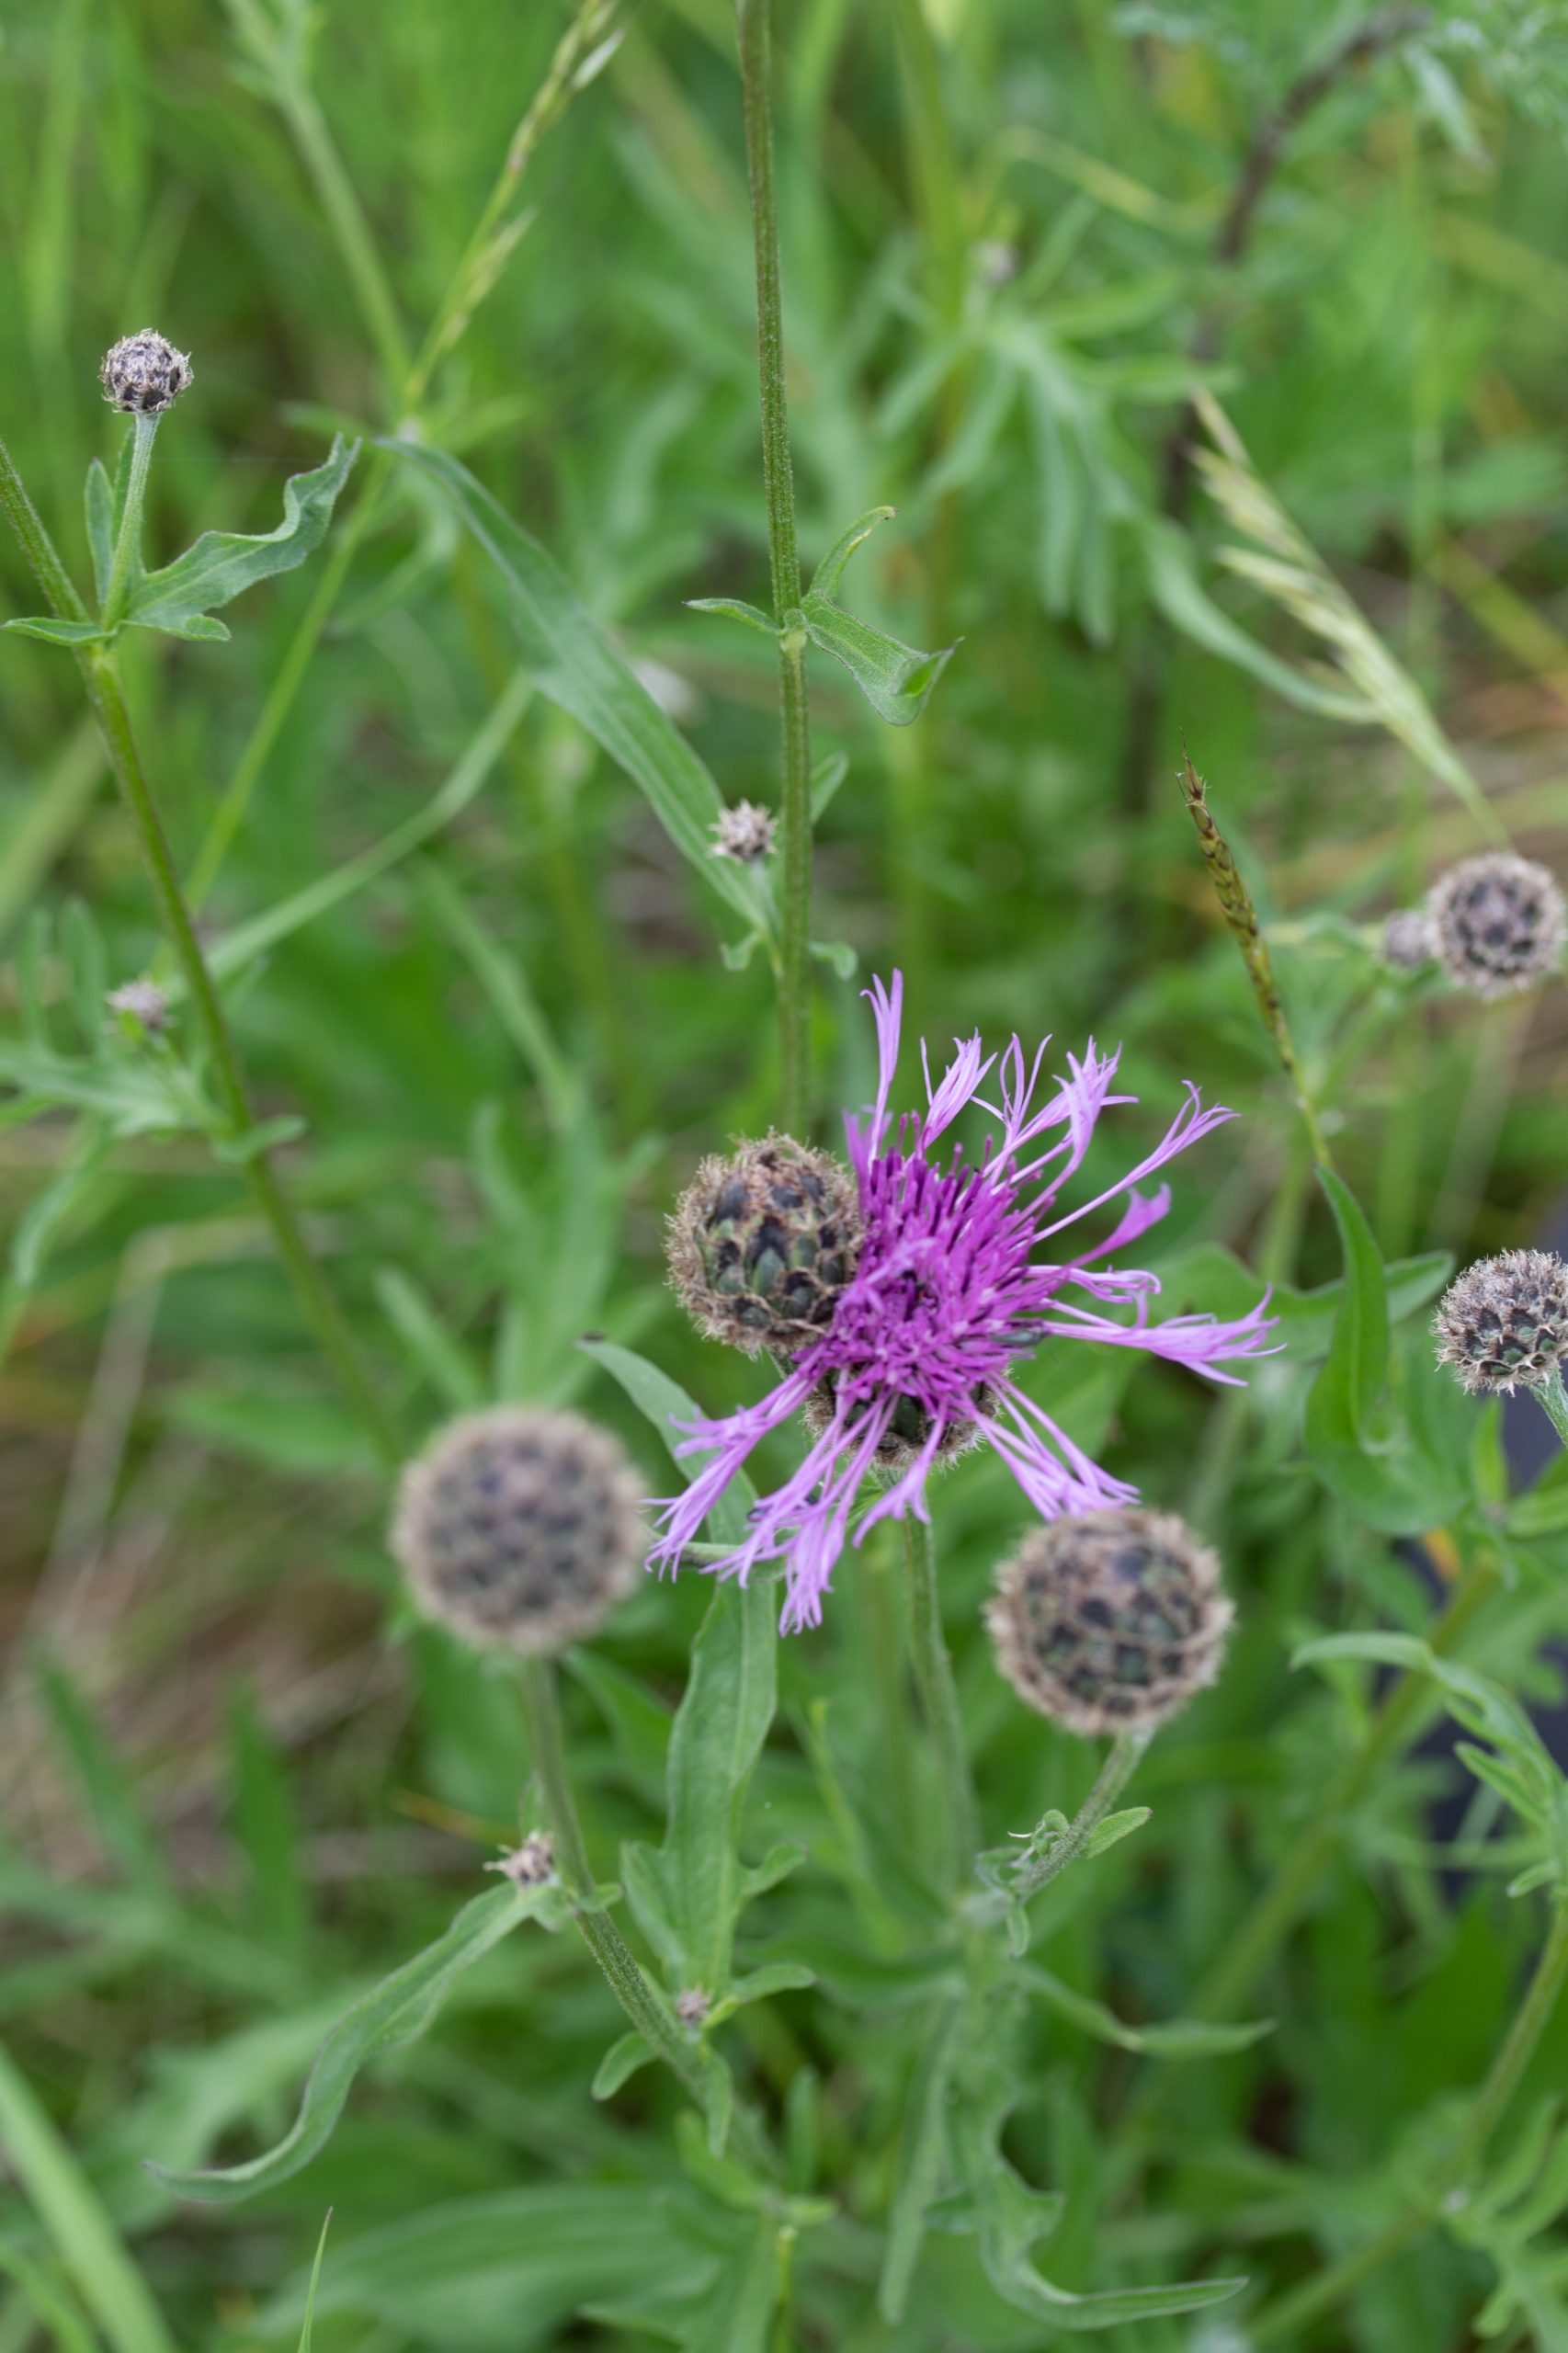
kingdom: Plantae
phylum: Tracheophyta
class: Magnoliopsida
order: Asterales
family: Asteraceae
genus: Centaurea
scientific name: Centaurea scabiosa
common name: Stor knopurt
